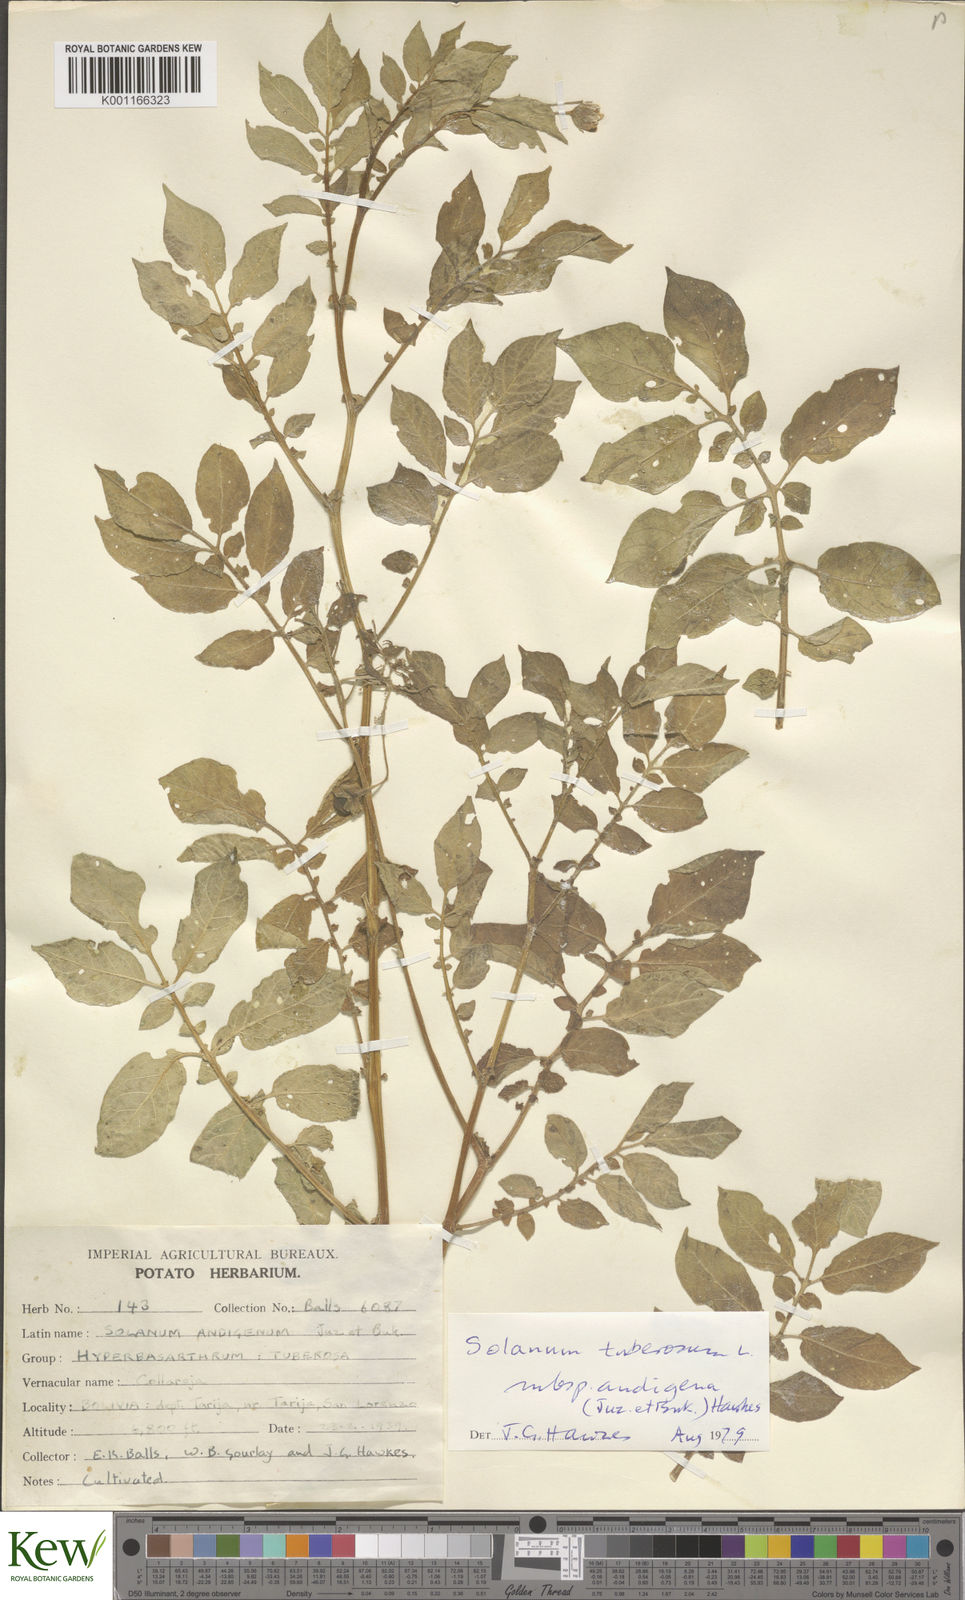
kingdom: Plantae
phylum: Tracheophyta
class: Magnoliopsida
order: Solanales
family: Solanaceae
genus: Solanum
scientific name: Solanum tuberosum
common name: Potato
